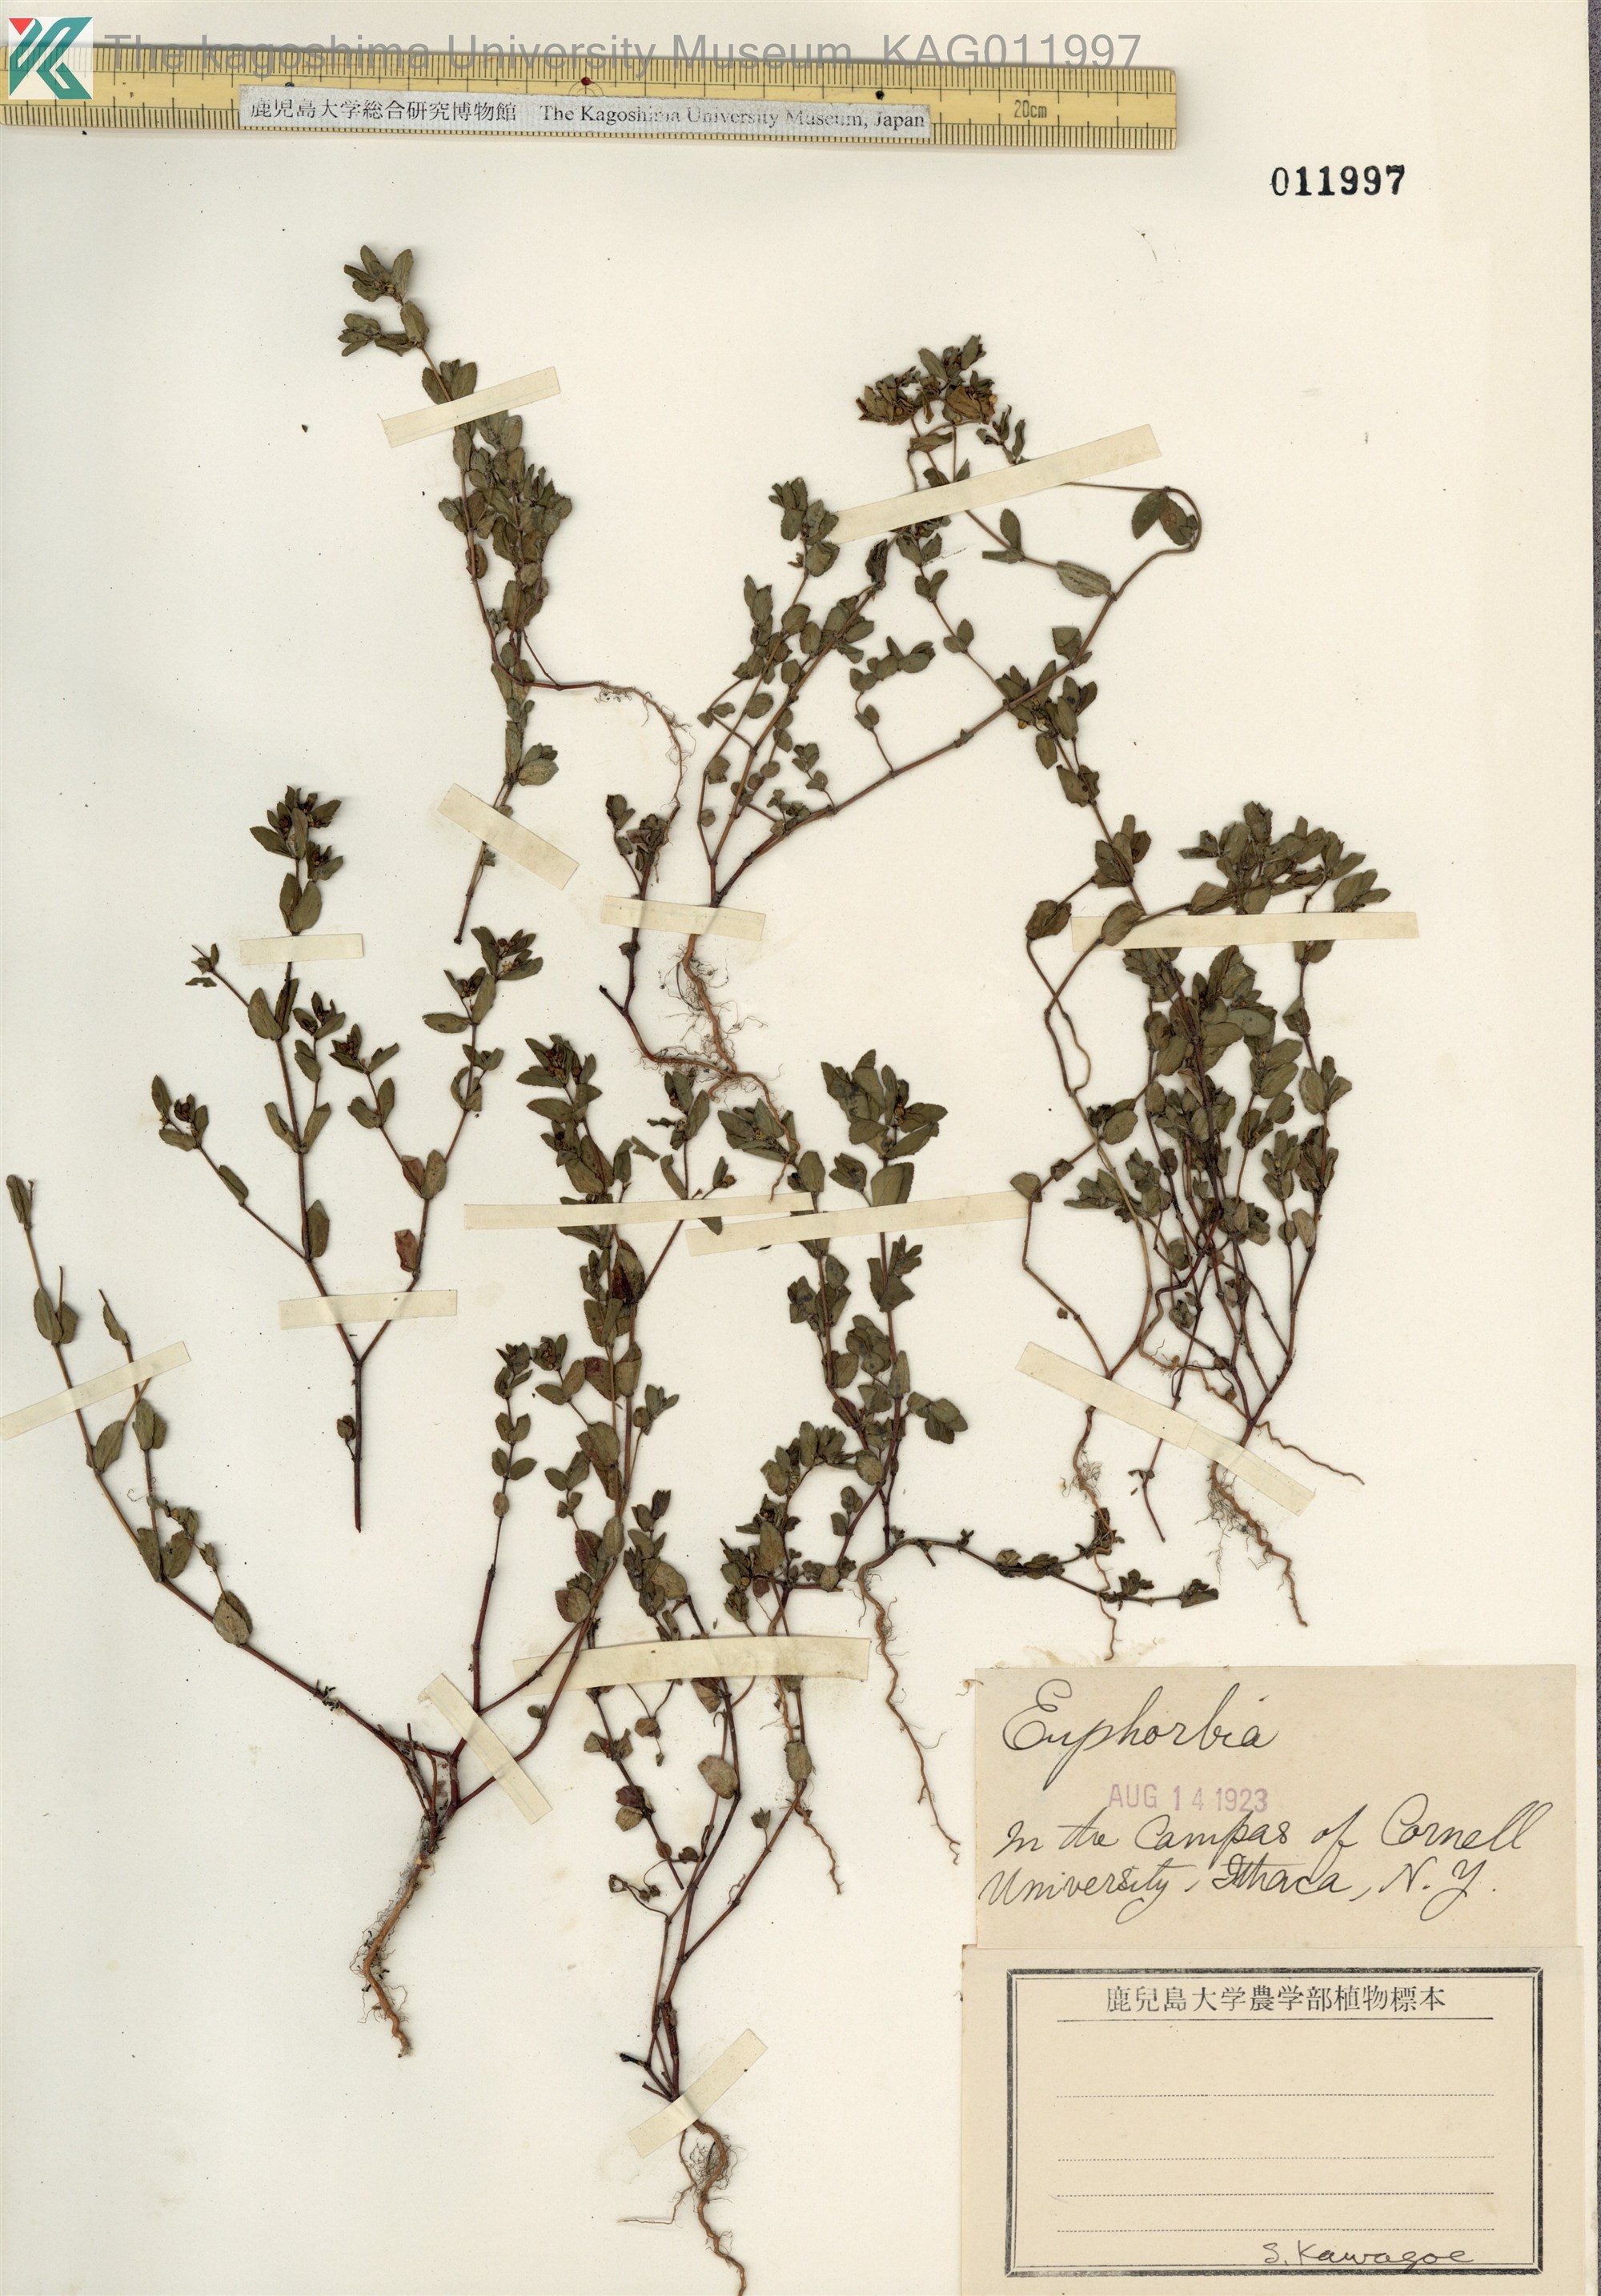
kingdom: Plantae
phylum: Tracheophyta
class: Magnoliopsida
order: Malpighiales
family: Euphorbiaceae
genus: Euphorbia
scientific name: Euphorbia hirsuta
